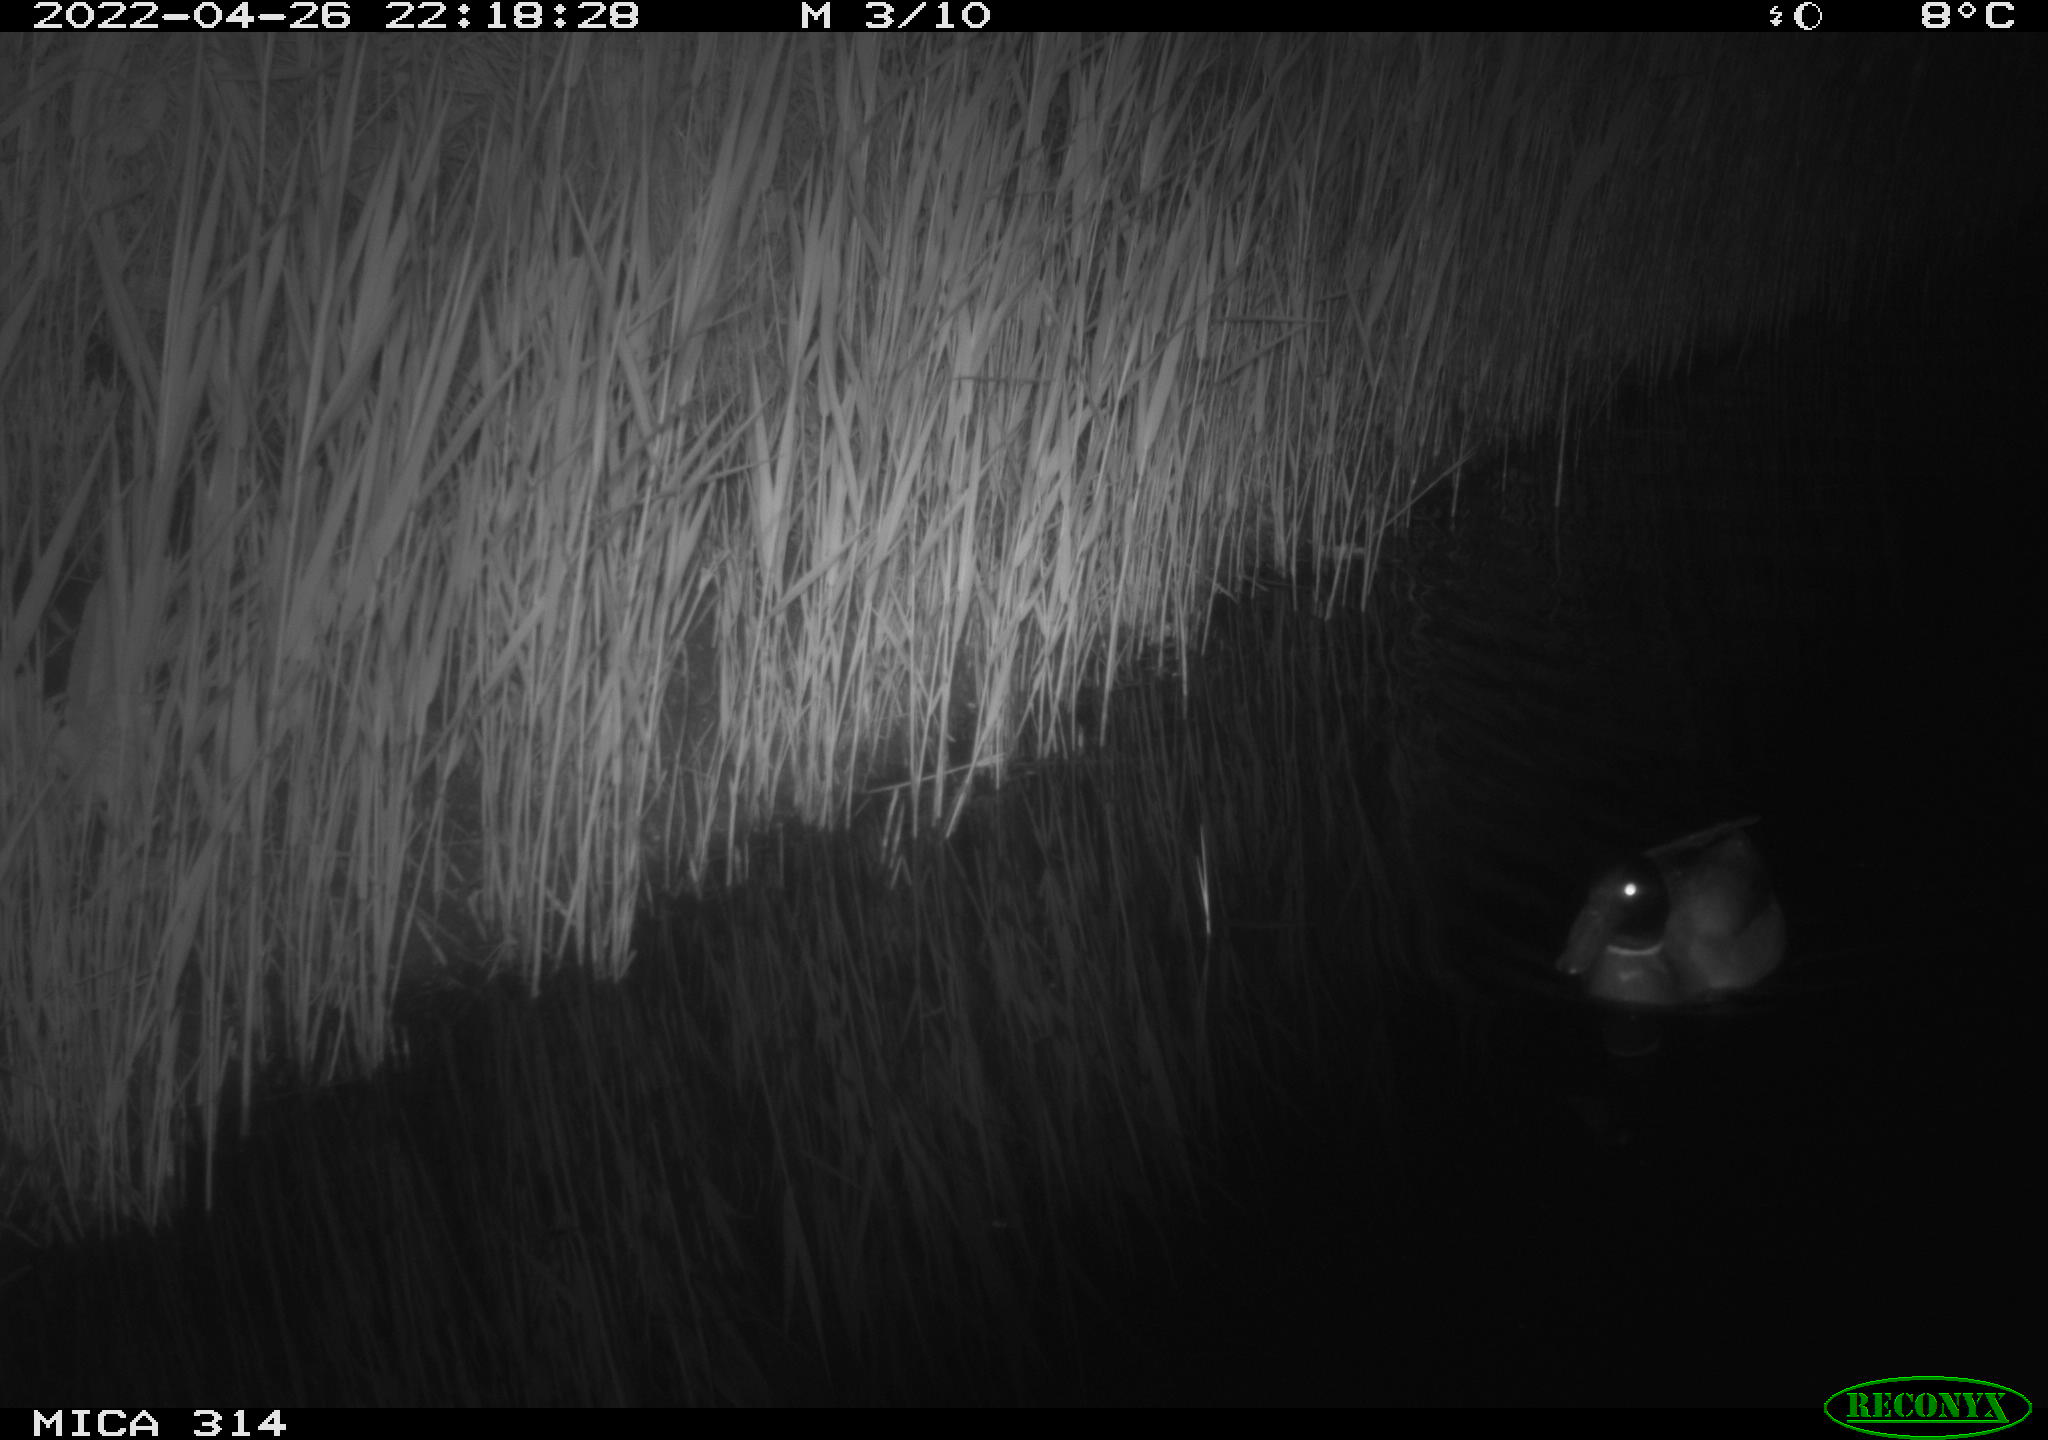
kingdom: Animalia
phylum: Chordata
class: Aves
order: Anseriformes
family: Anatidae
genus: Anas
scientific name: Anas platyrhynchos
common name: Mallard
